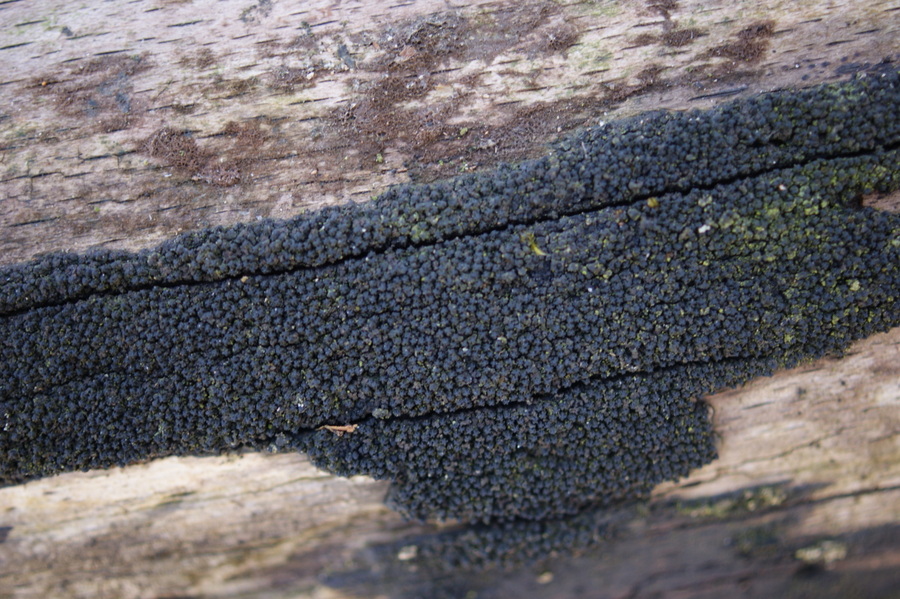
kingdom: Fungi
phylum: Ascomycota
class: Sordariomycetes
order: Xylariales
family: Diatrypaceae
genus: Eutypa
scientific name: Eutypa spinosa
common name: grov kulskorpe
